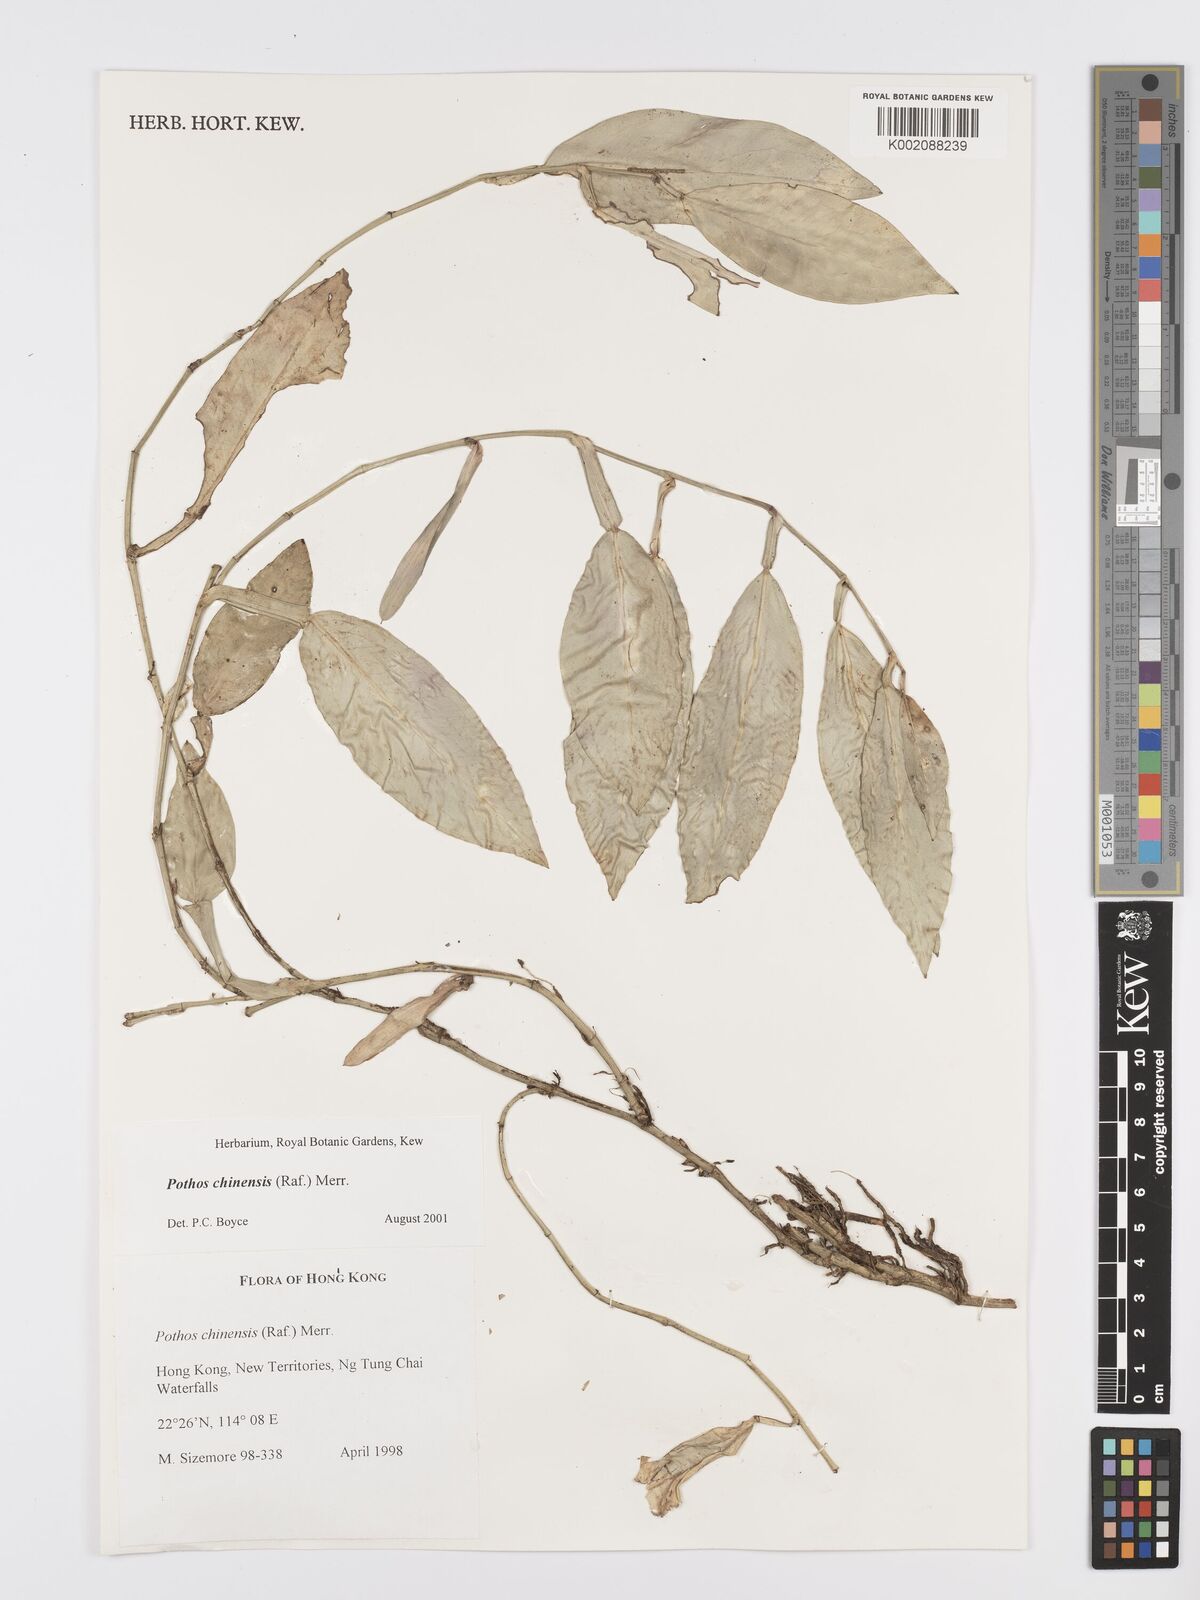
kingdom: Plantae
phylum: Tracheophyta
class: Liliopsida
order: Alismatales
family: Araceae
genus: Pothos
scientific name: Pothos chinensis
